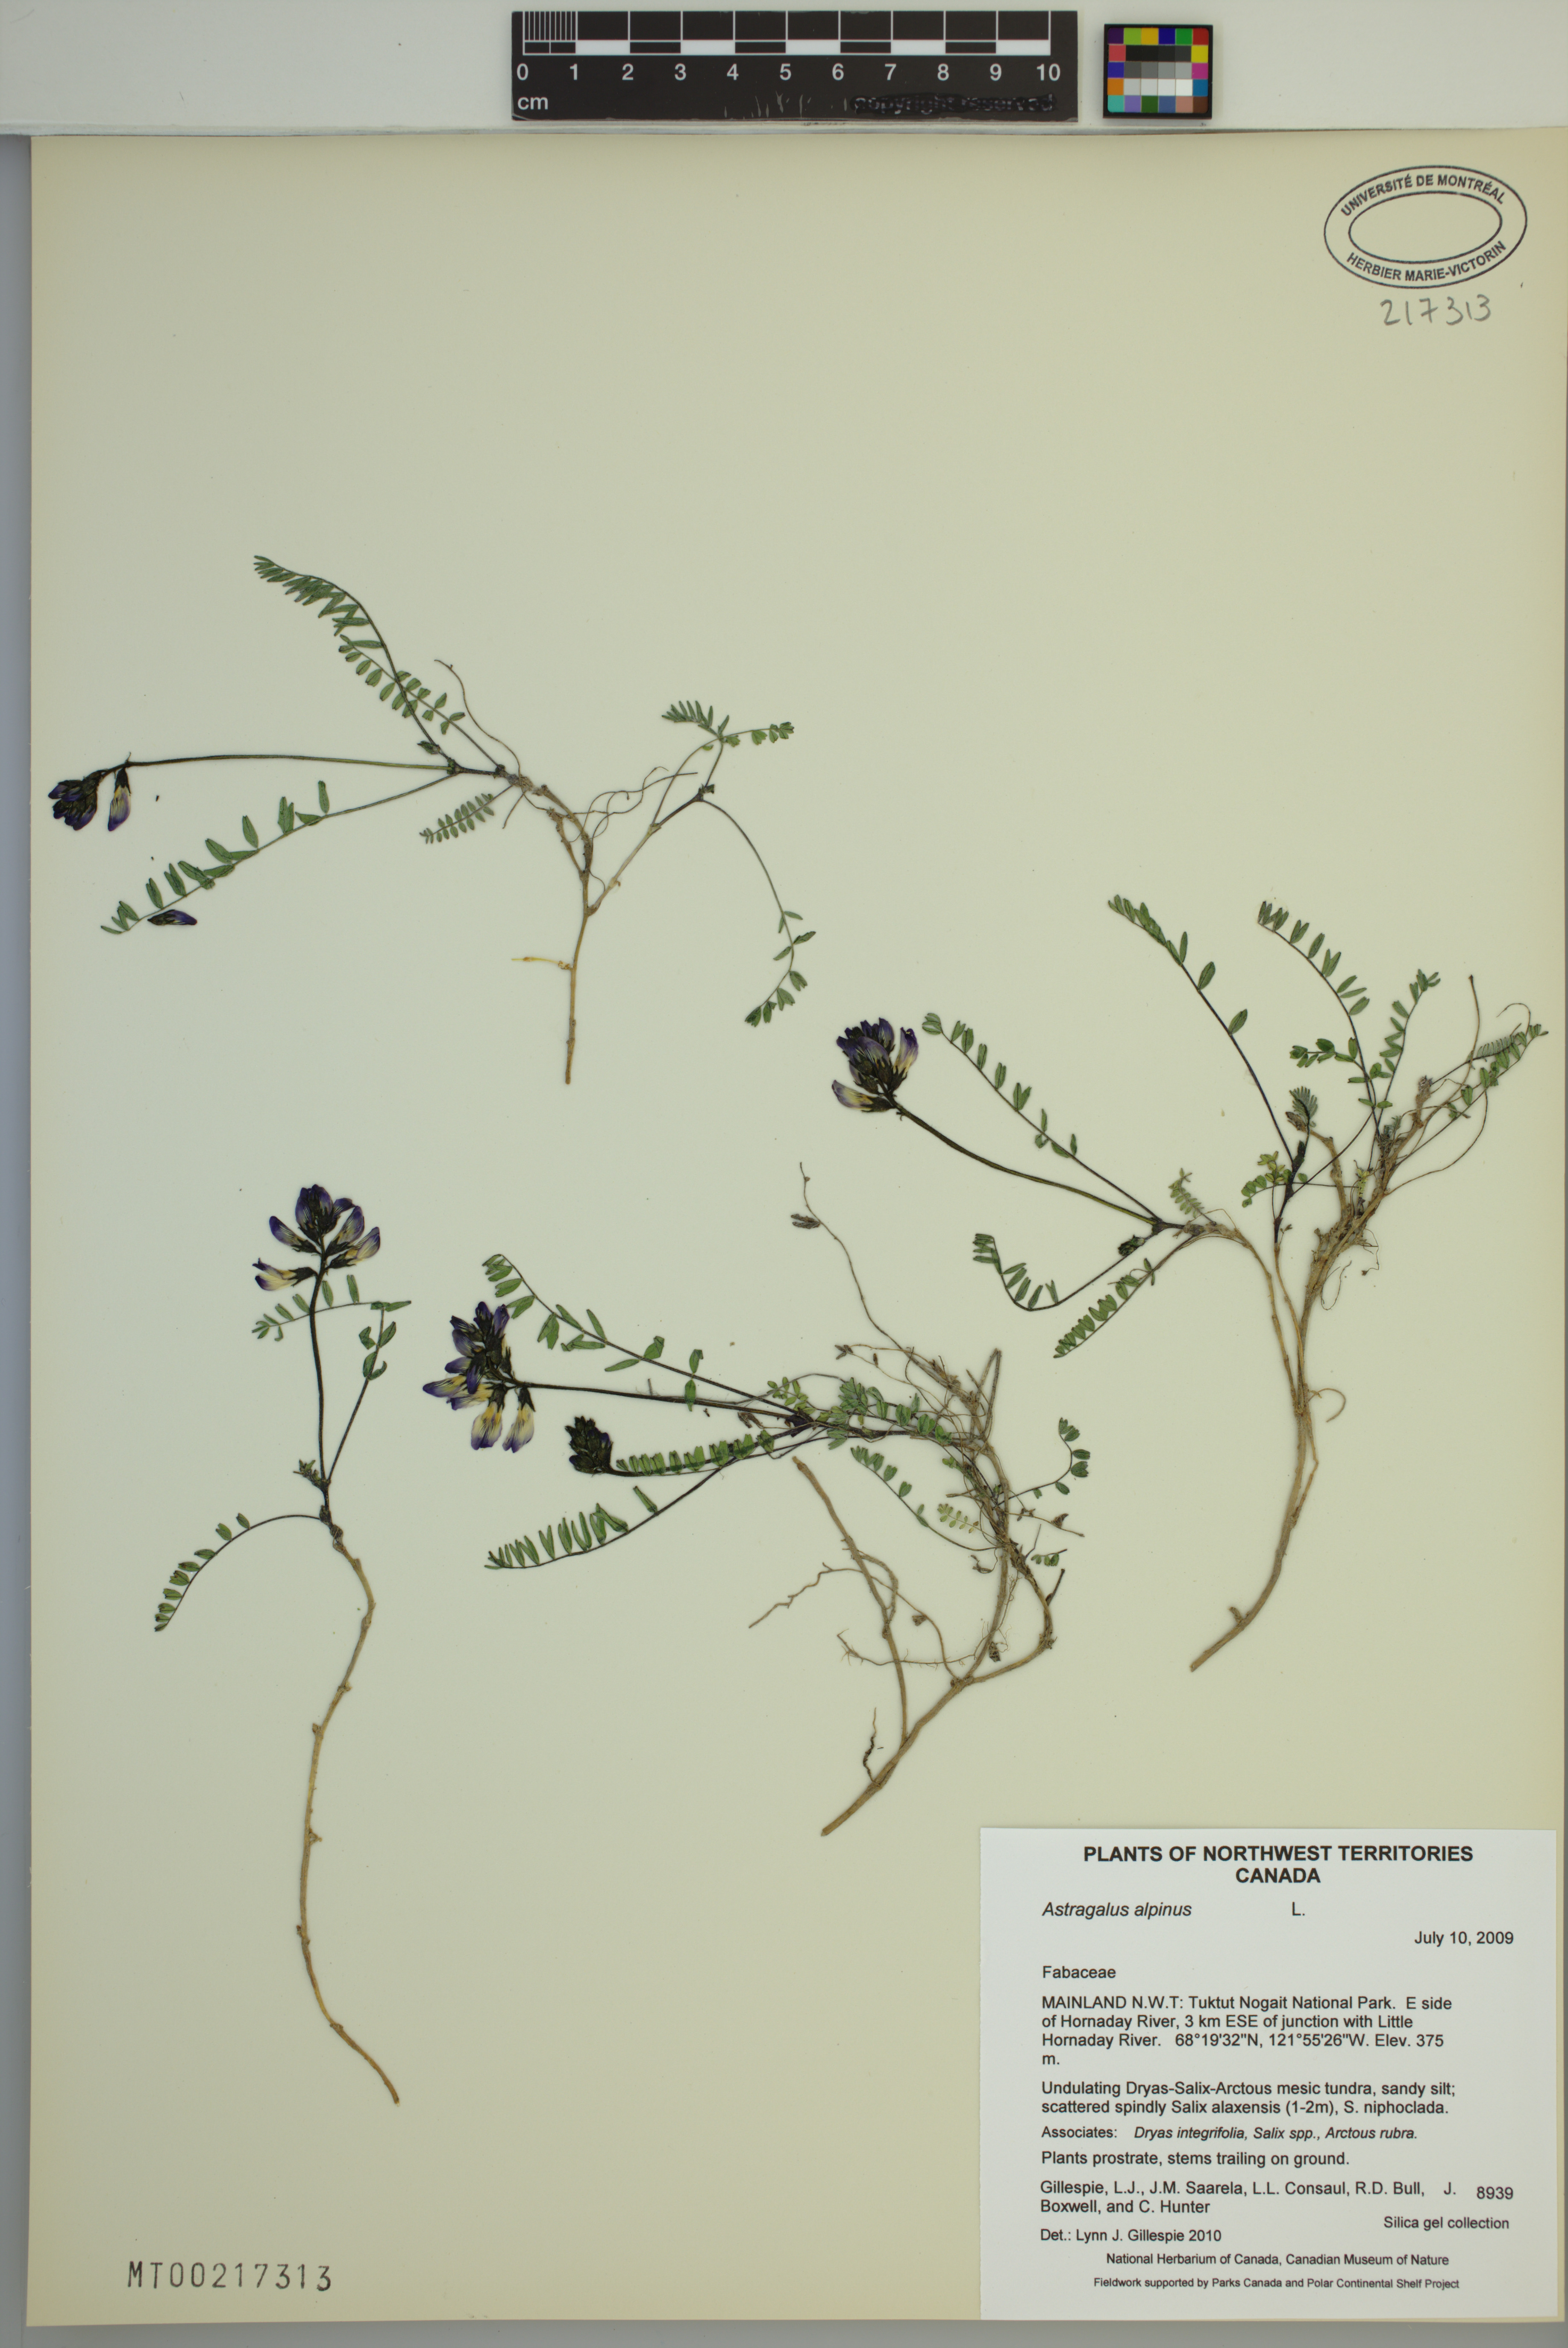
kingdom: Plantae
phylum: Tracheophyta
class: Magnoliopsida
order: Fabales
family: Fabaceae
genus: Astragalus
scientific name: Astragalus alpinus
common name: Alpine milk-vetch
